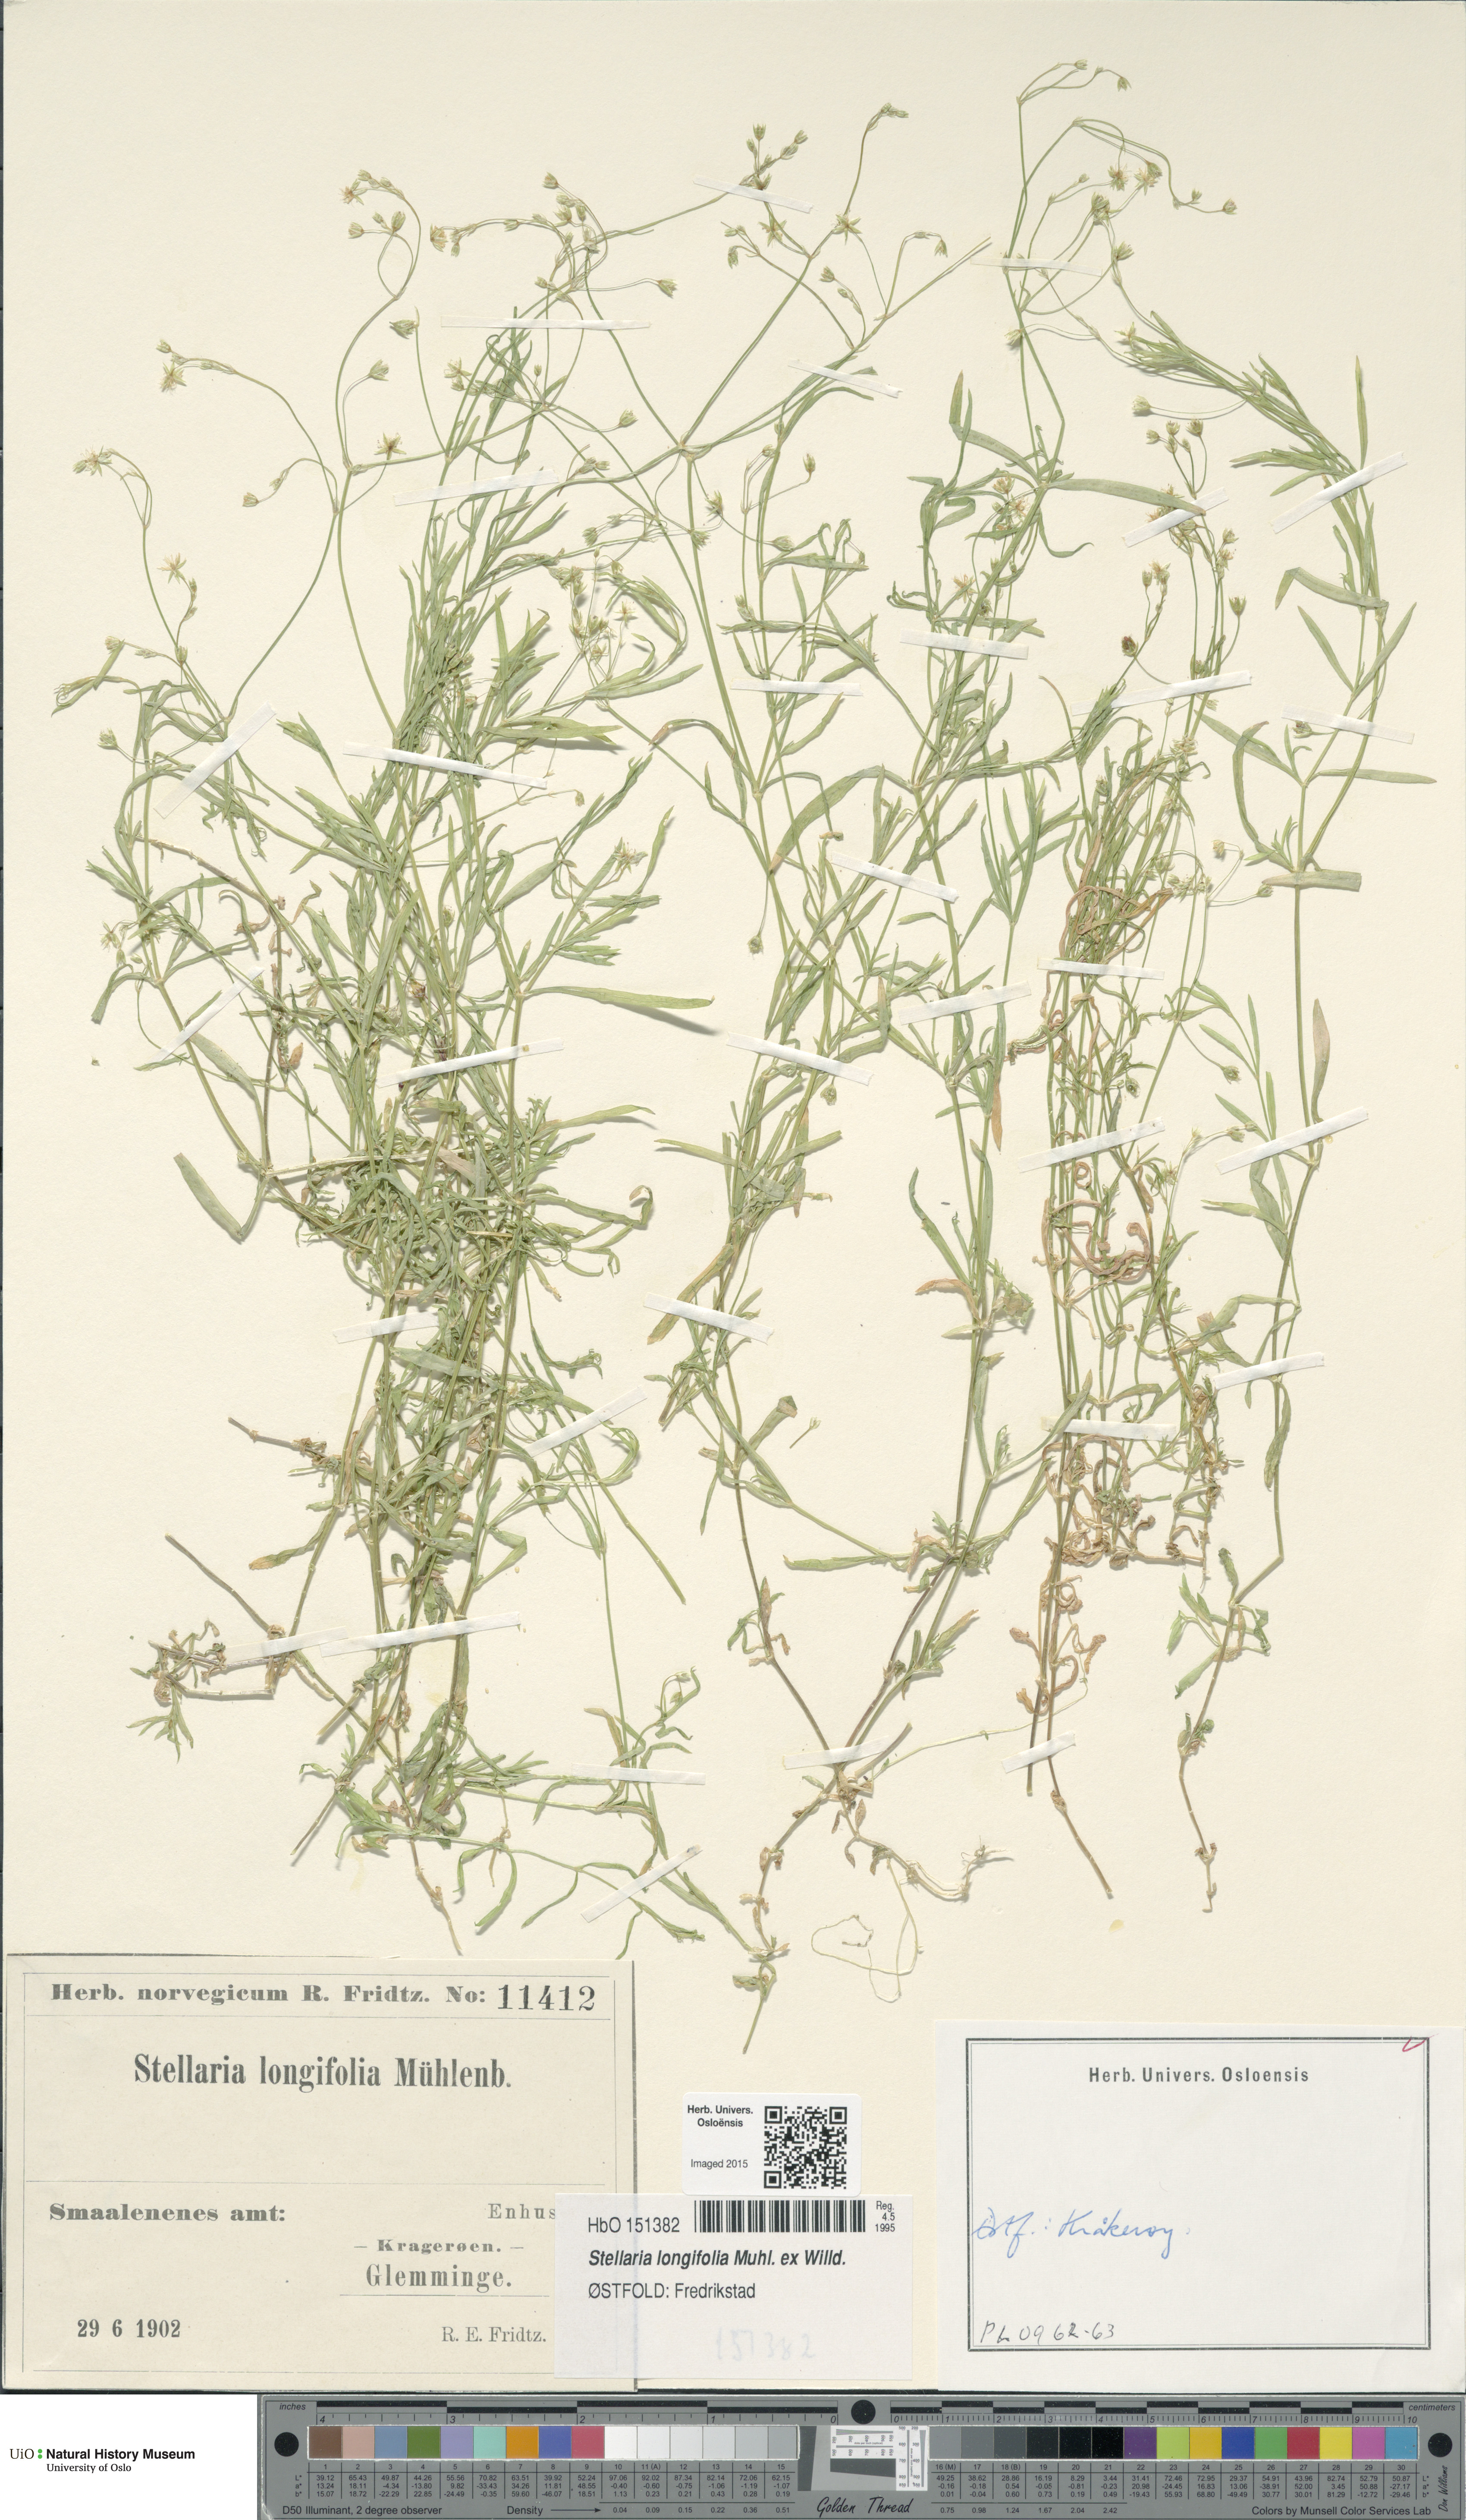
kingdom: Plantae
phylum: Tracheophyta
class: Magnoliopsida
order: Caryophyllales
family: Caryophyllaceae
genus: Stellaria
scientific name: Stellaria longifolia
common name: Long-leaved chickweed
